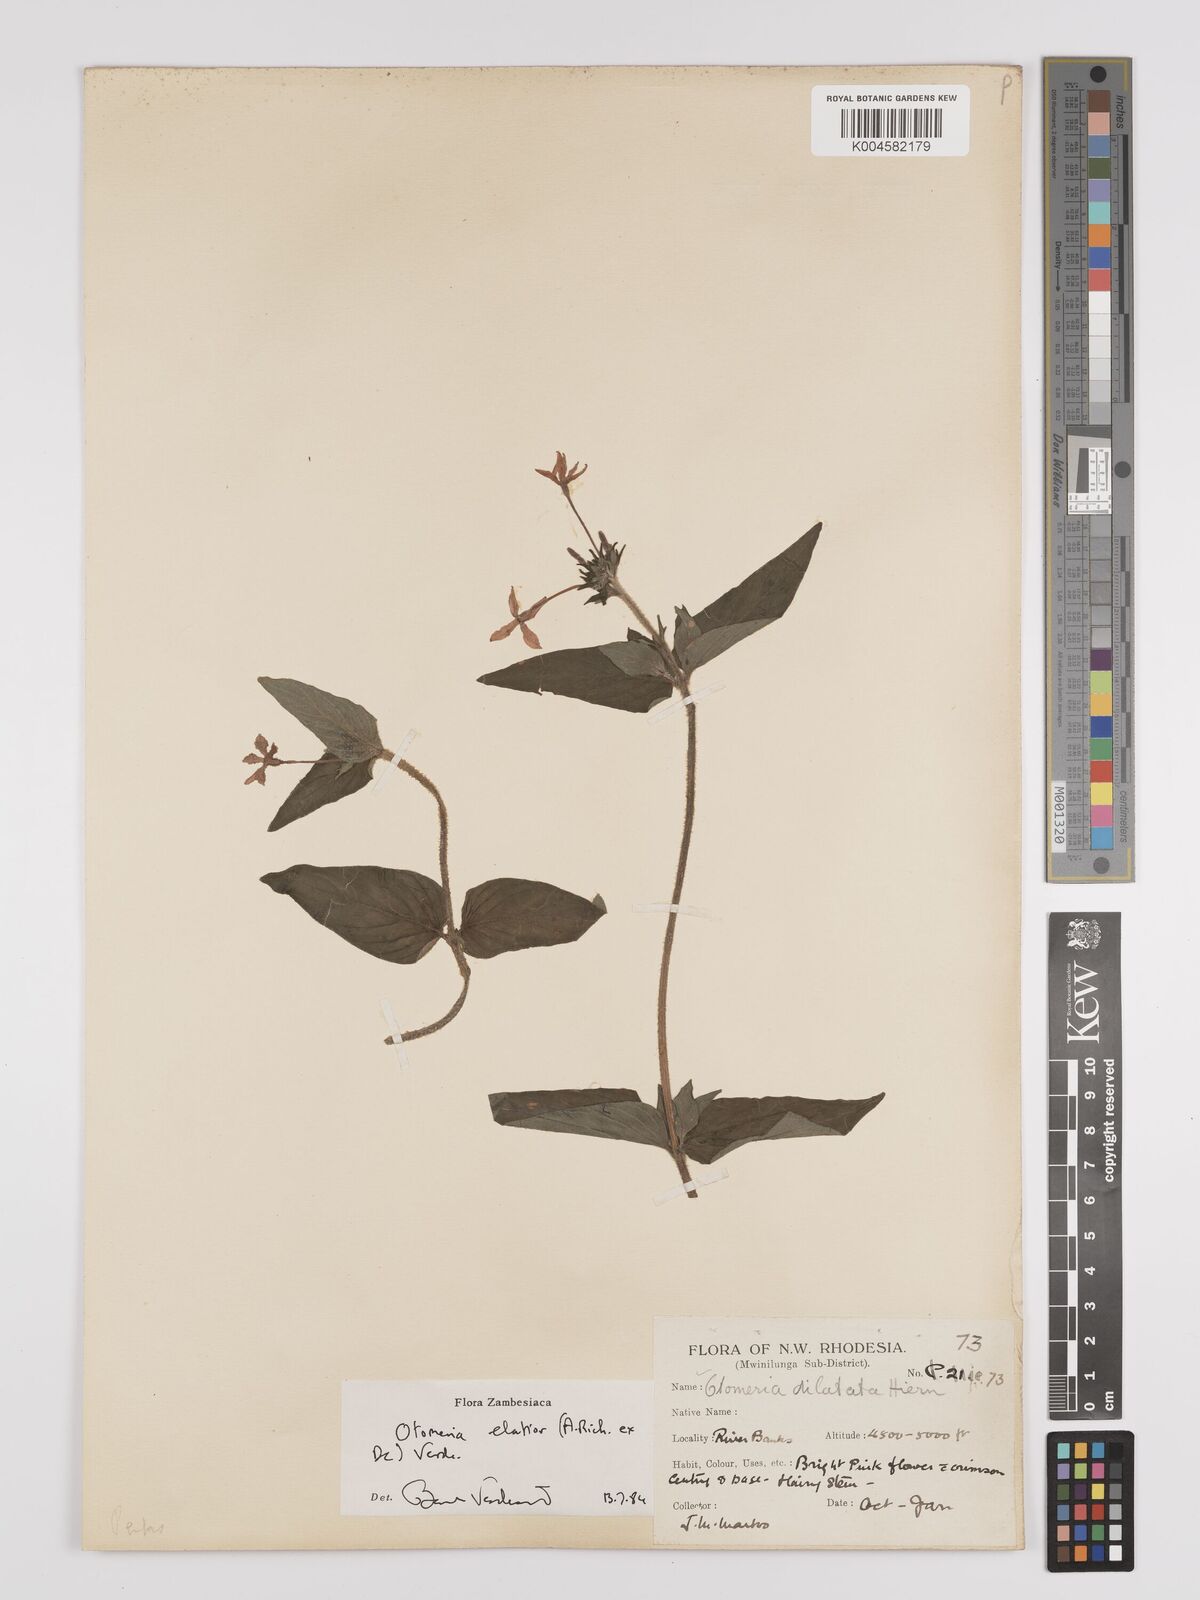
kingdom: Plantae
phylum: Tracheophyta
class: Magnoliopsida
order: Gentianales
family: Rubiaceae
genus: Otomeria
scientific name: Otomeria elatior
